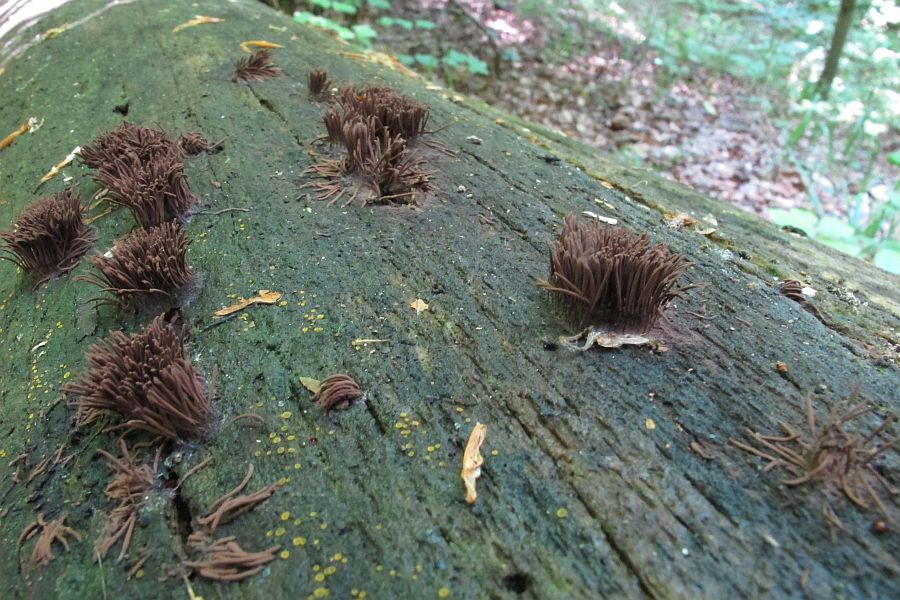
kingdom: Protozoa
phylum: Mycetozoa
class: Myxomycetes
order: Stemonitidales
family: Stemonitidaceae
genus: Stemonitis
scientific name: Stemonitis axifera
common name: rødbrun støvkølle
